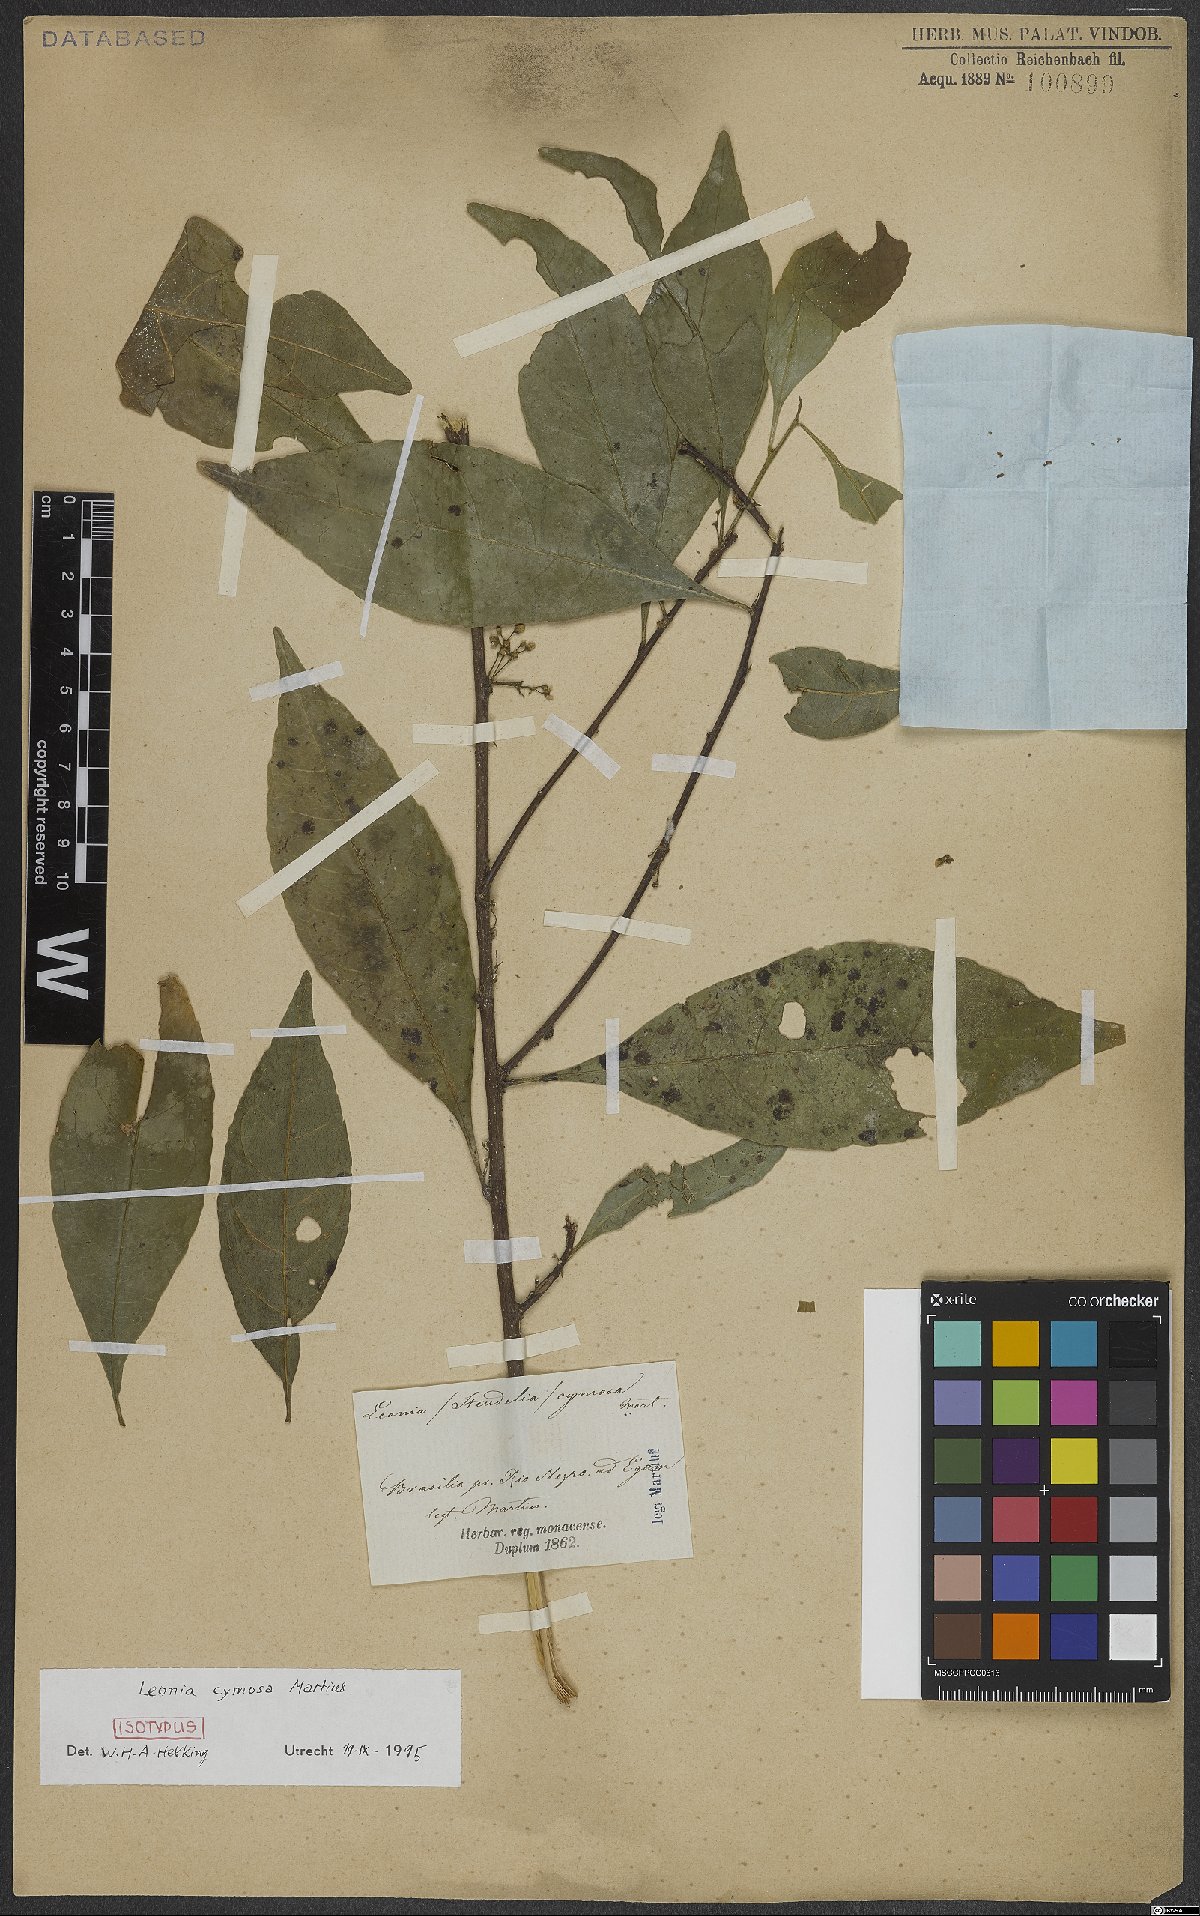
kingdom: Plantae
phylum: Tracheophyta
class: Magnoliopsida
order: Malpighiales
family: Violaceae
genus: Leonia
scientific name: Leonia cymosa
